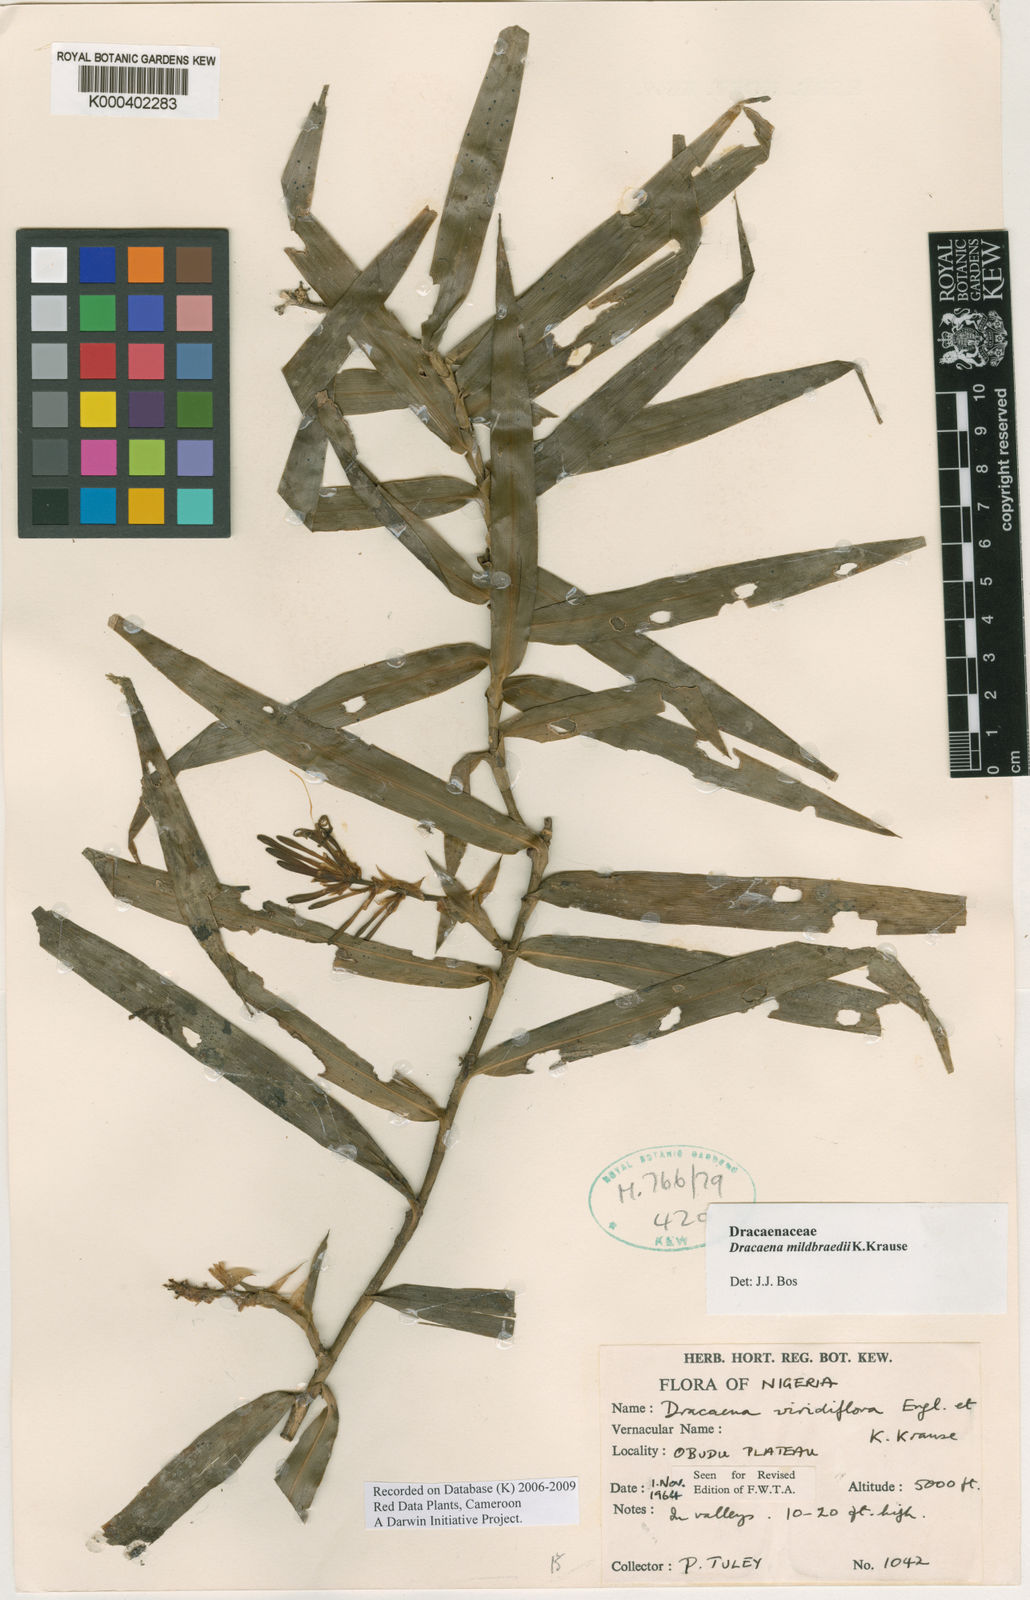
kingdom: Plantae
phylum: Tracheophyta
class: Liliopsida
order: Asparagales
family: Asparagaceae
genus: Dracaena
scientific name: Dracaena viridiflora
